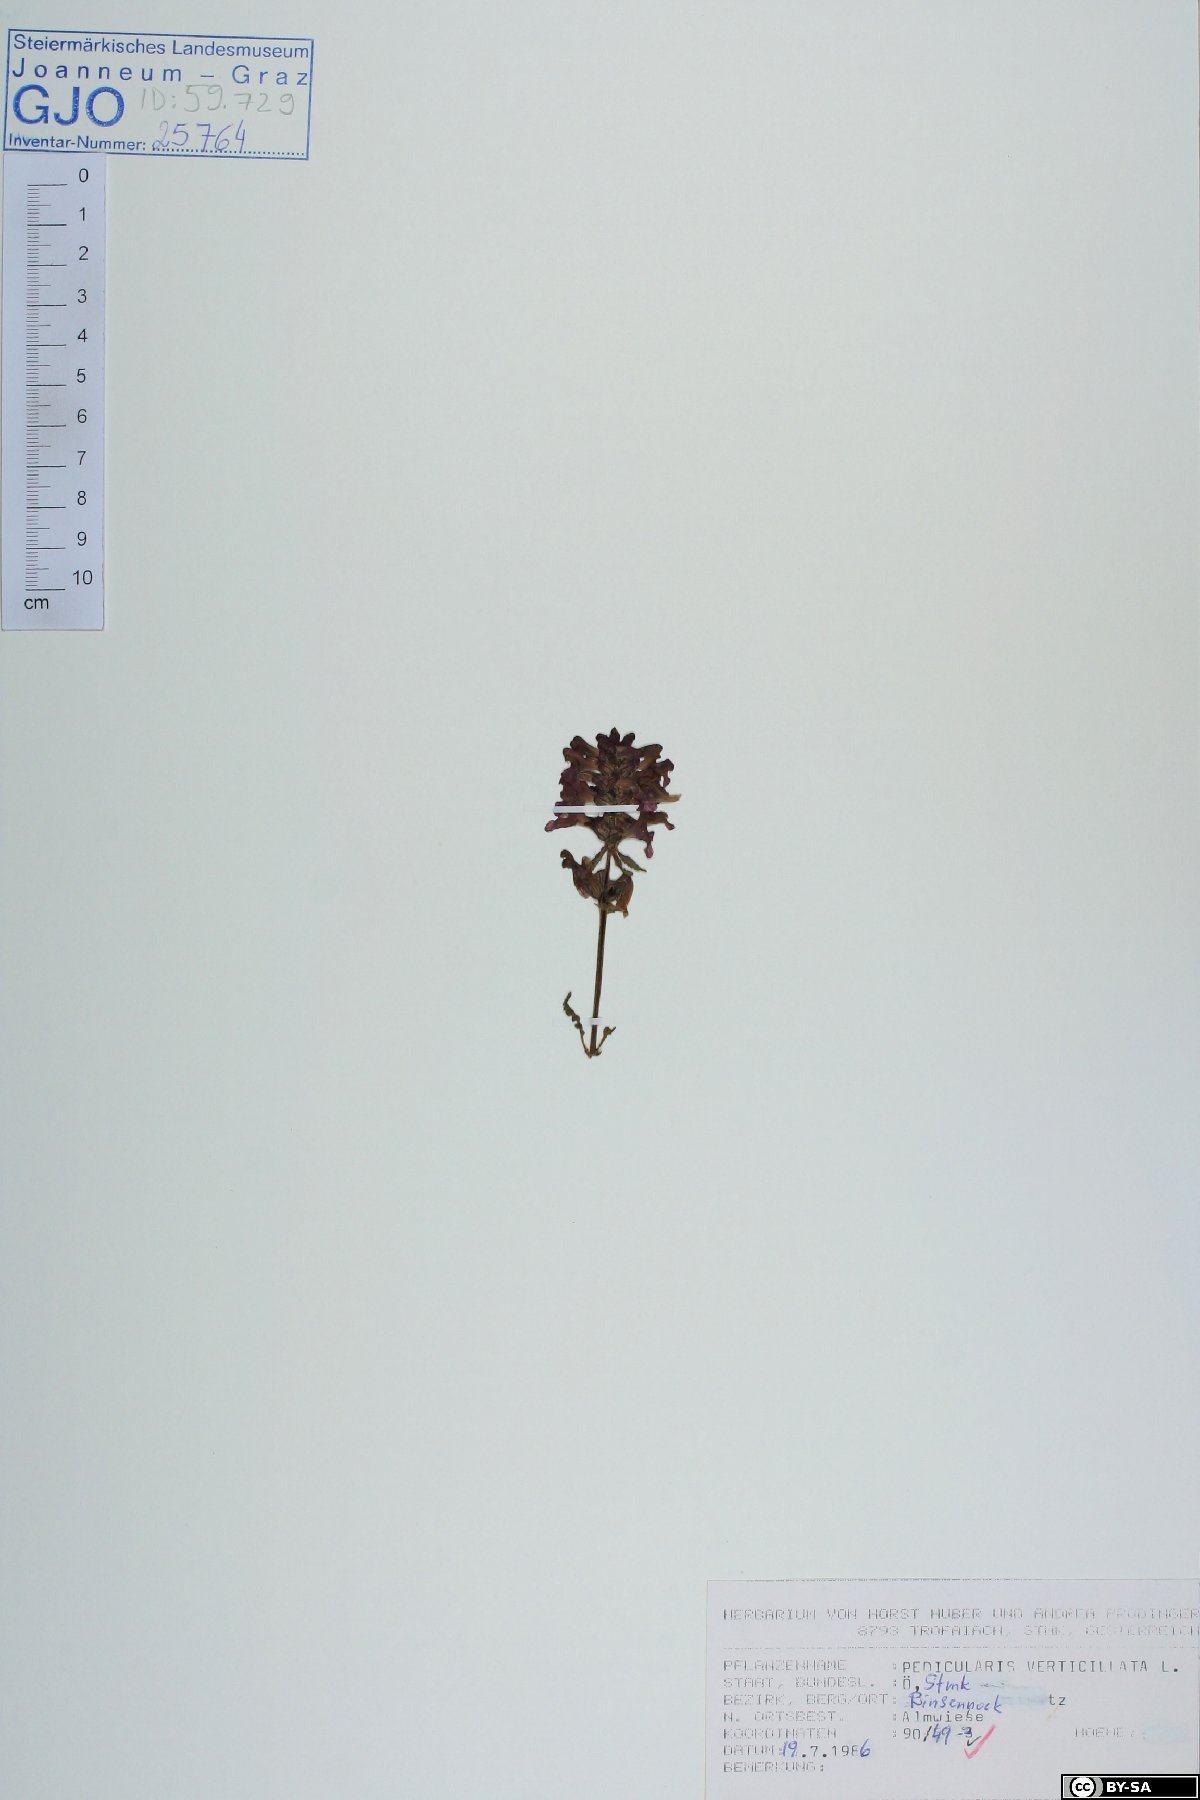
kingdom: Plantae
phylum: Tracheophyta
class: Magnoliopsida
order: Lamiales
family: Orobanchaceae
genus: Pedicularis
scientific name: Pedicularis verticillata
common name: Whorled lousewort
